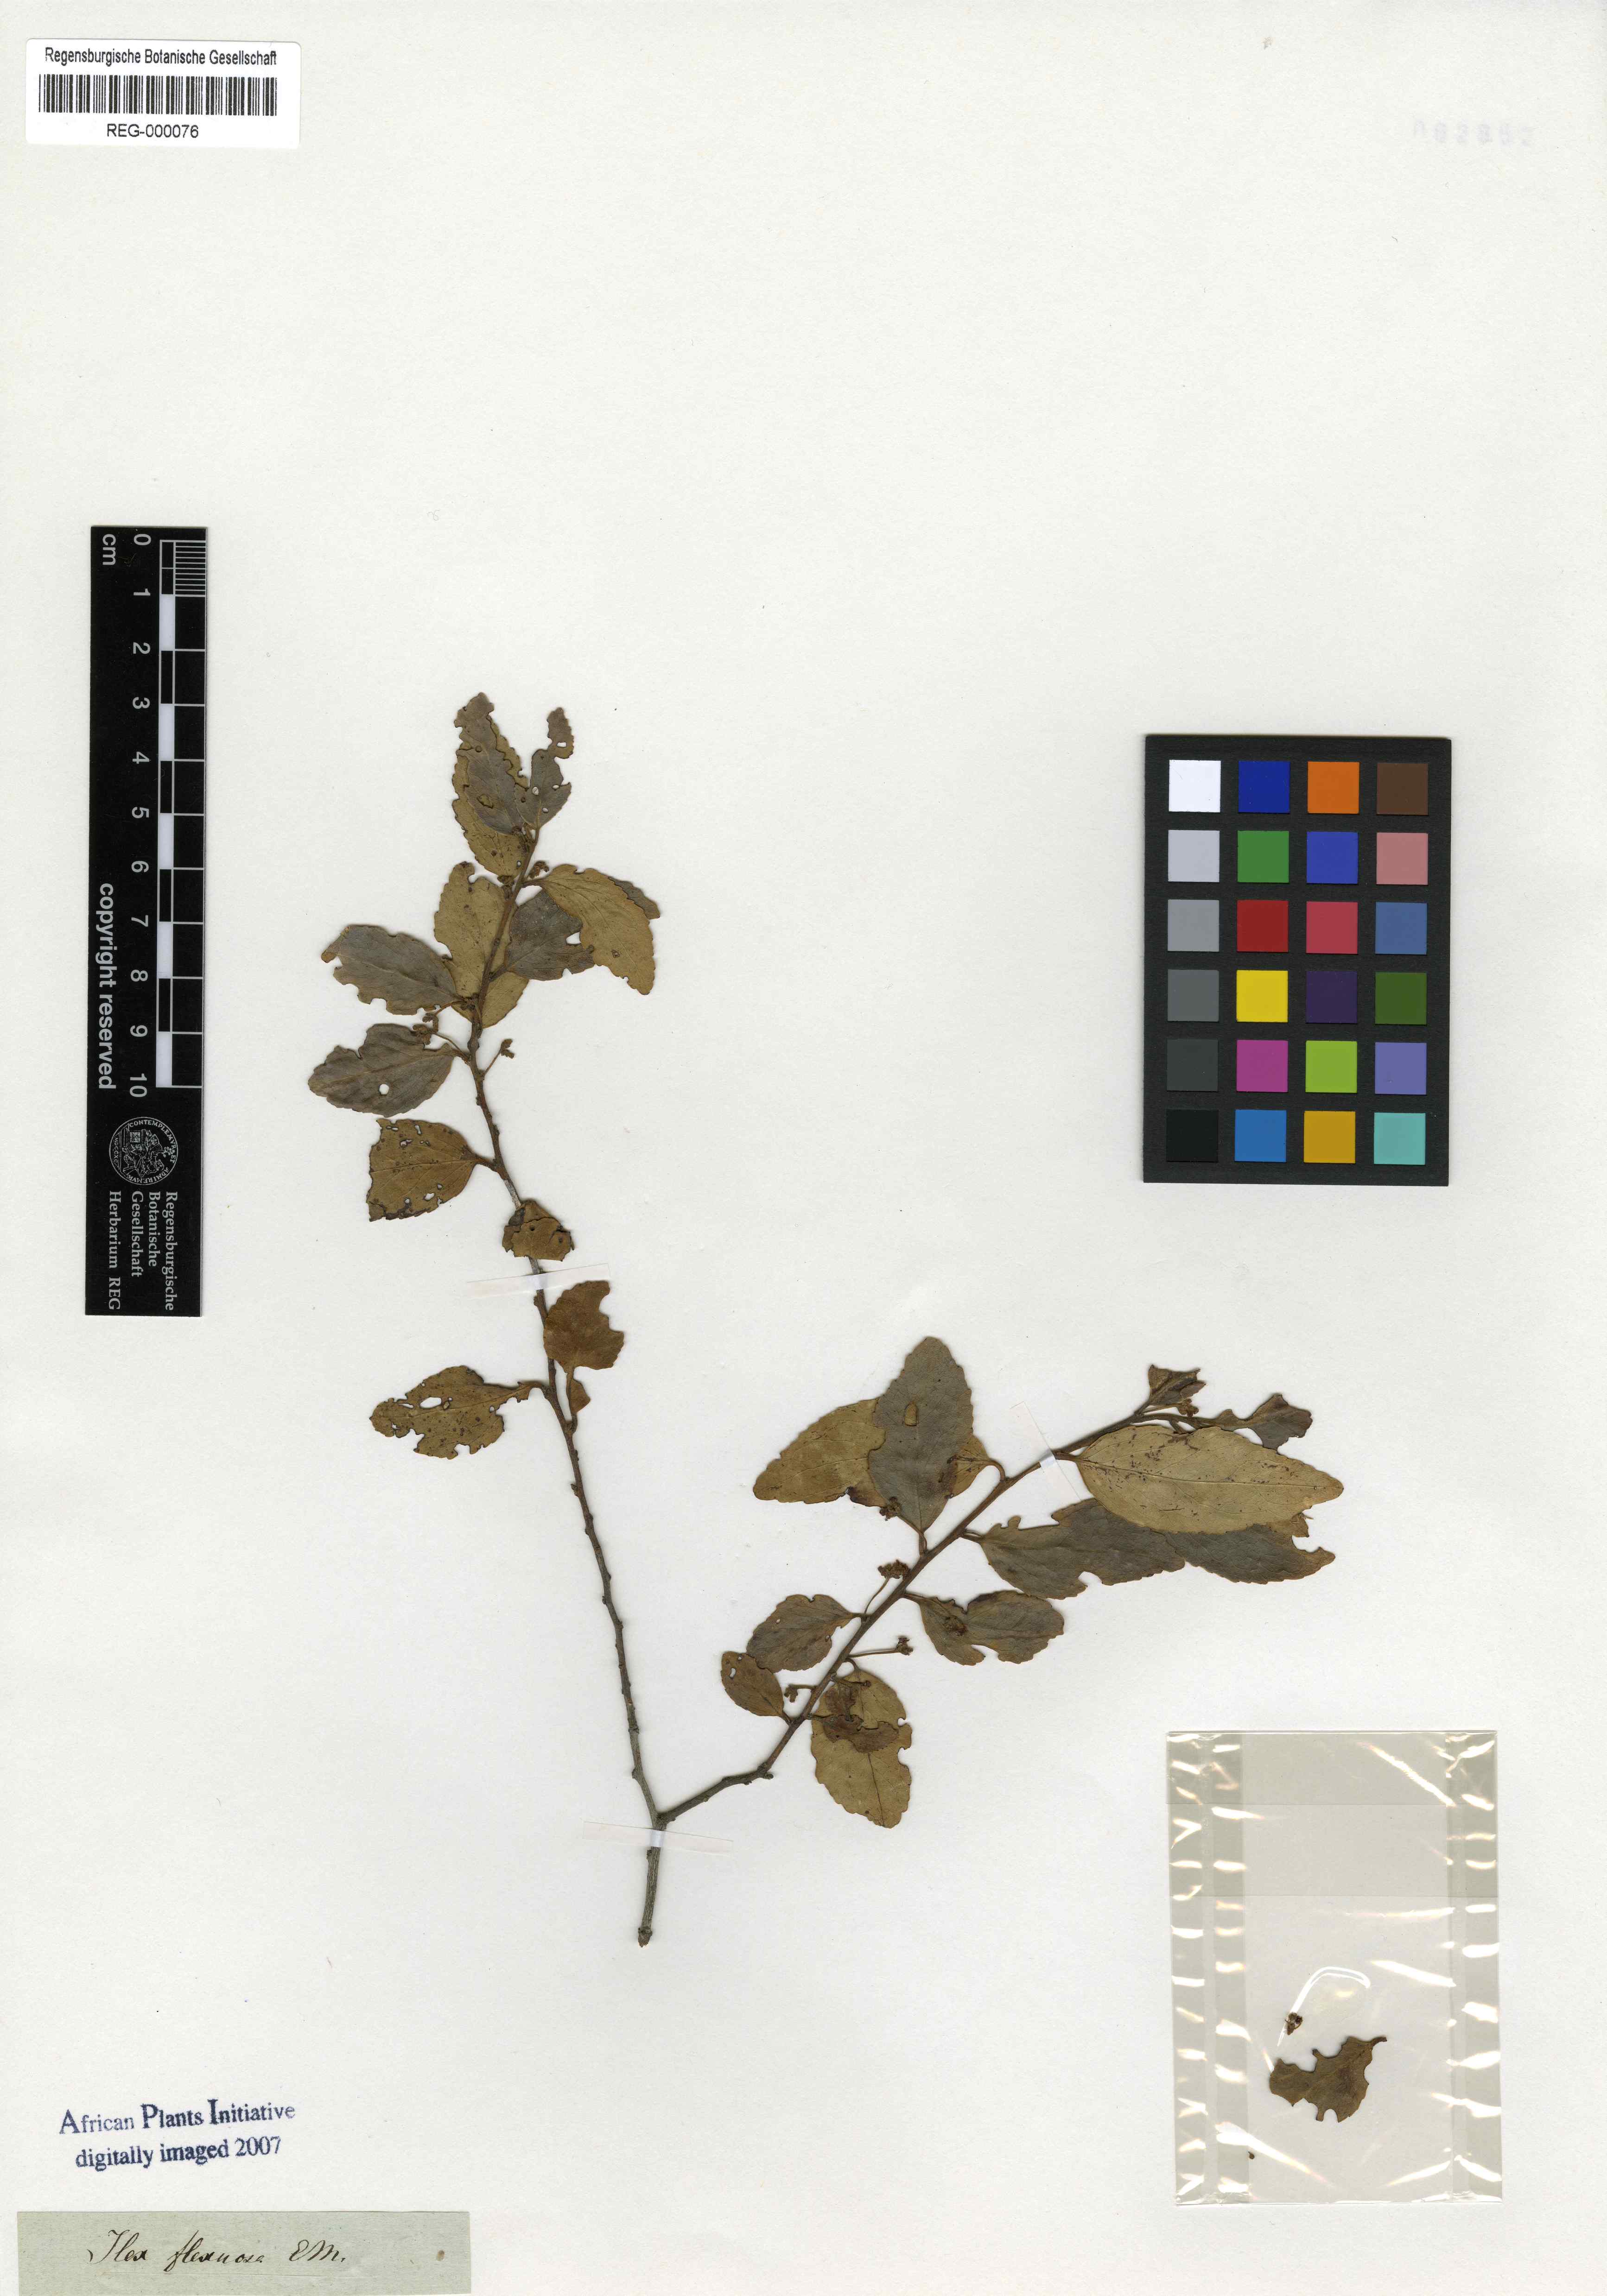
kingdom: Plantae
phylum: Tracheophyta
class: Magnoliopsida
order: Celastrales
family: Celastraceae
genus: Gymnosporia
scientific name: Gymnosporia peduncularis
